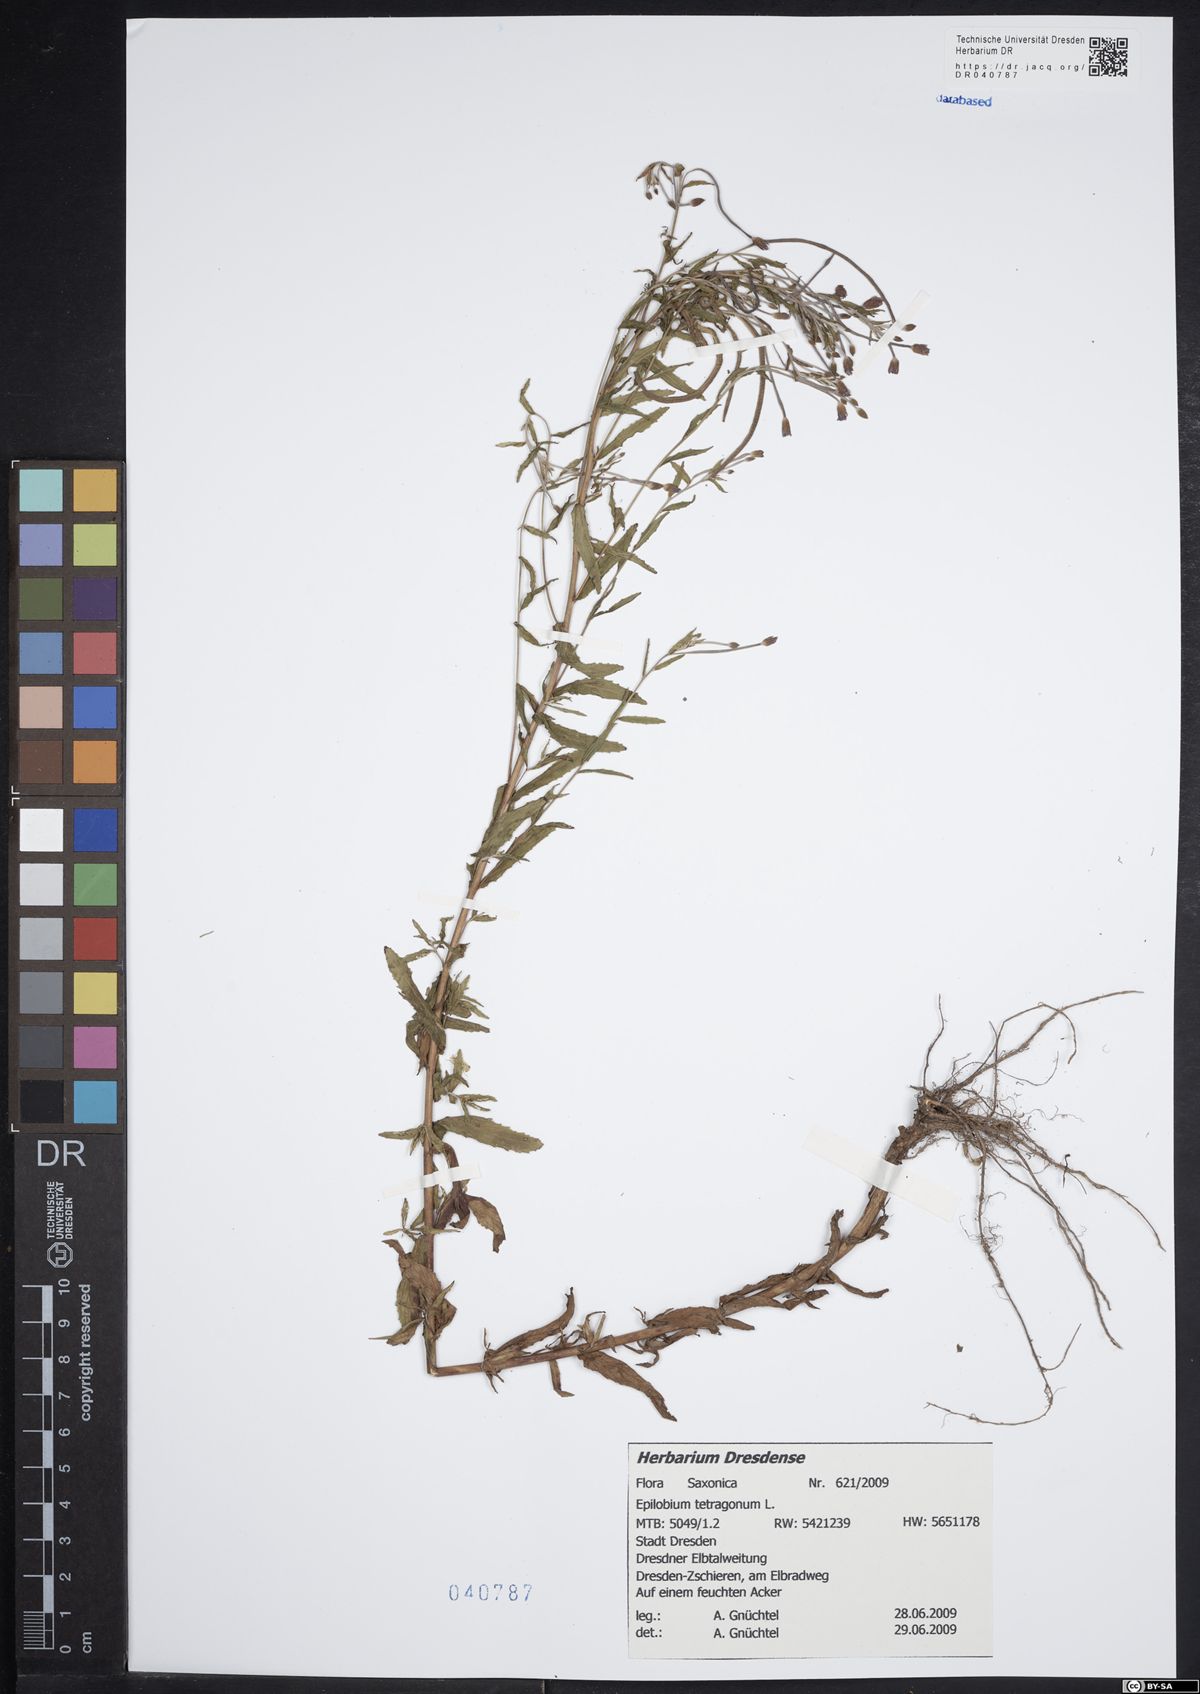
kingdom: Plantae
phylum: Tracheophyta
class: Magnoliopsida
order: Myrtales
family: Onagraceae
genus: Epilobium
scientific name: Epilobium tetragonum
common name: Square-stemmed willowherb
